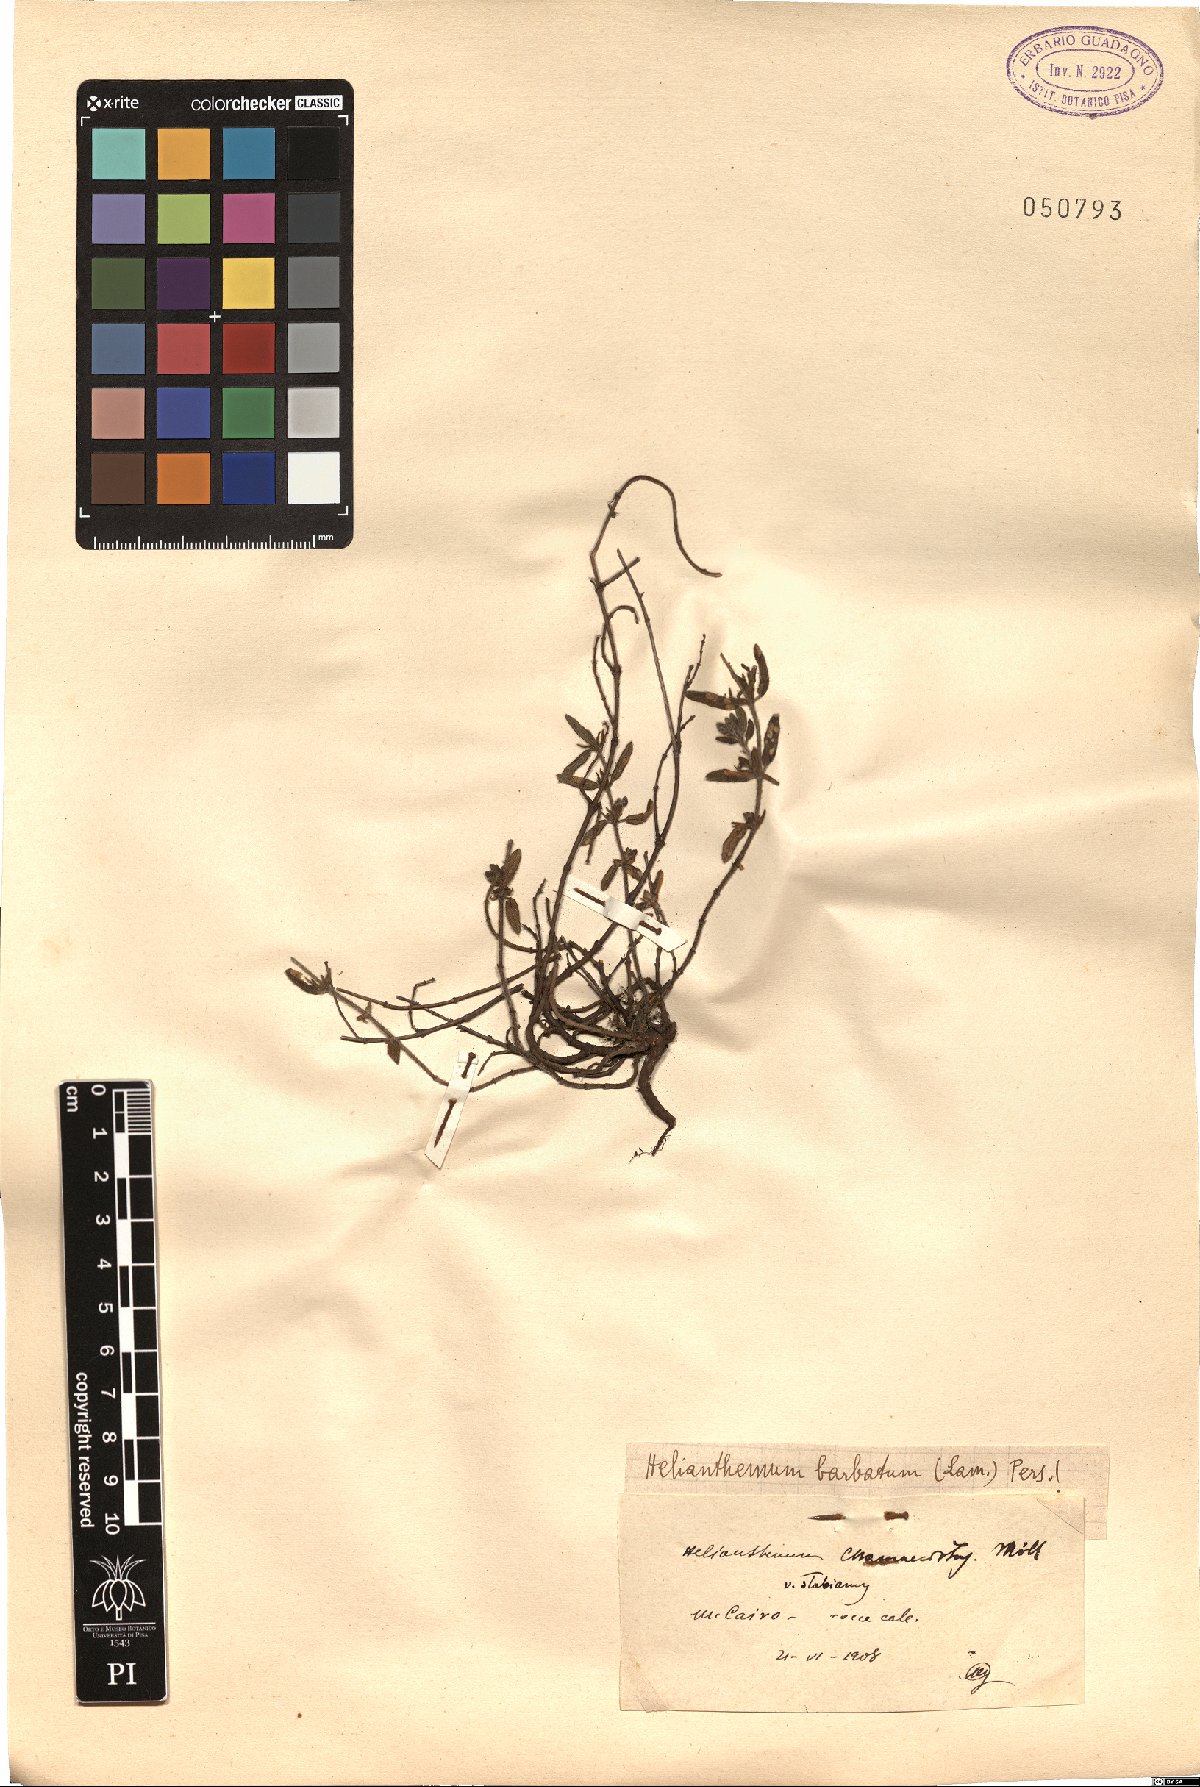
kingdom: Plantae
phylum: Tracheophyta
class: Magnoliopsida
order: Malvales
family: Cistaceae
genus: Helianthemum
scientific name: Helianthemum nummularium
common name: Common rock-rose
